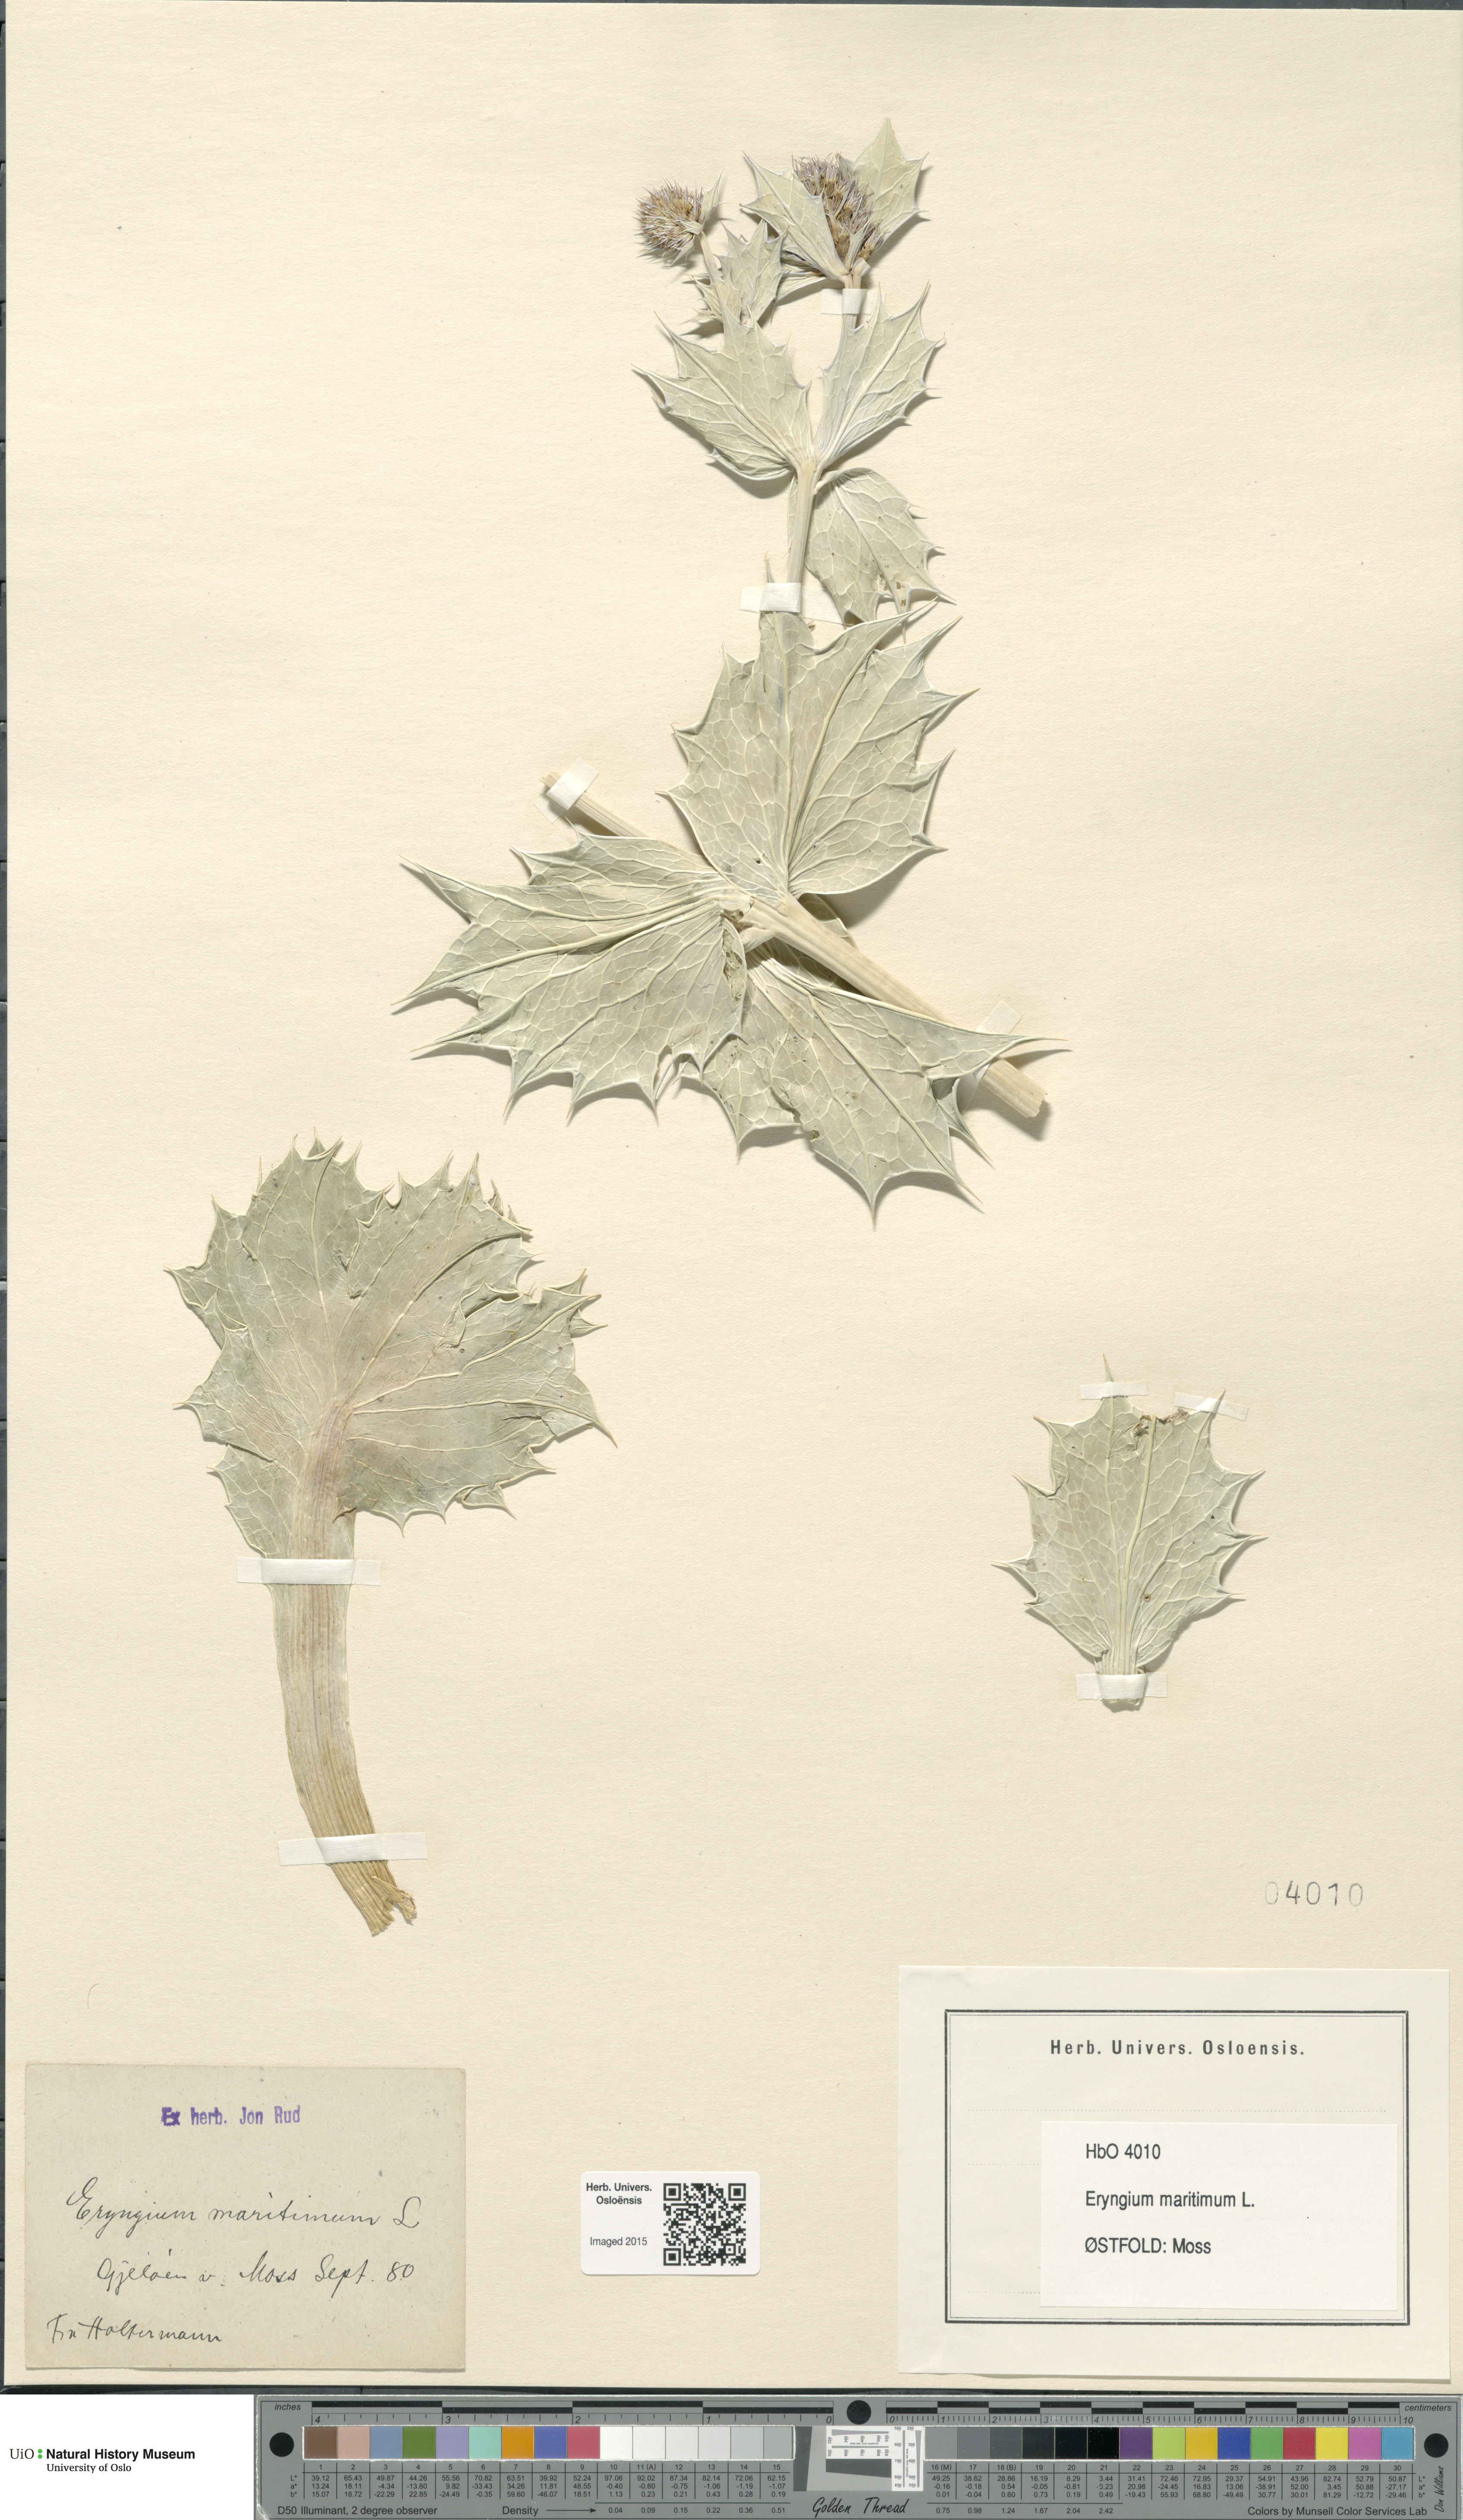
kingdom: Plantae
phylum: Tracheophyta
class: Magnoliopsida
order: Apiales
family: Apiaceae
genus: Eryngium
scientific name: Eryngium maritimum
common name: Sea-holly
